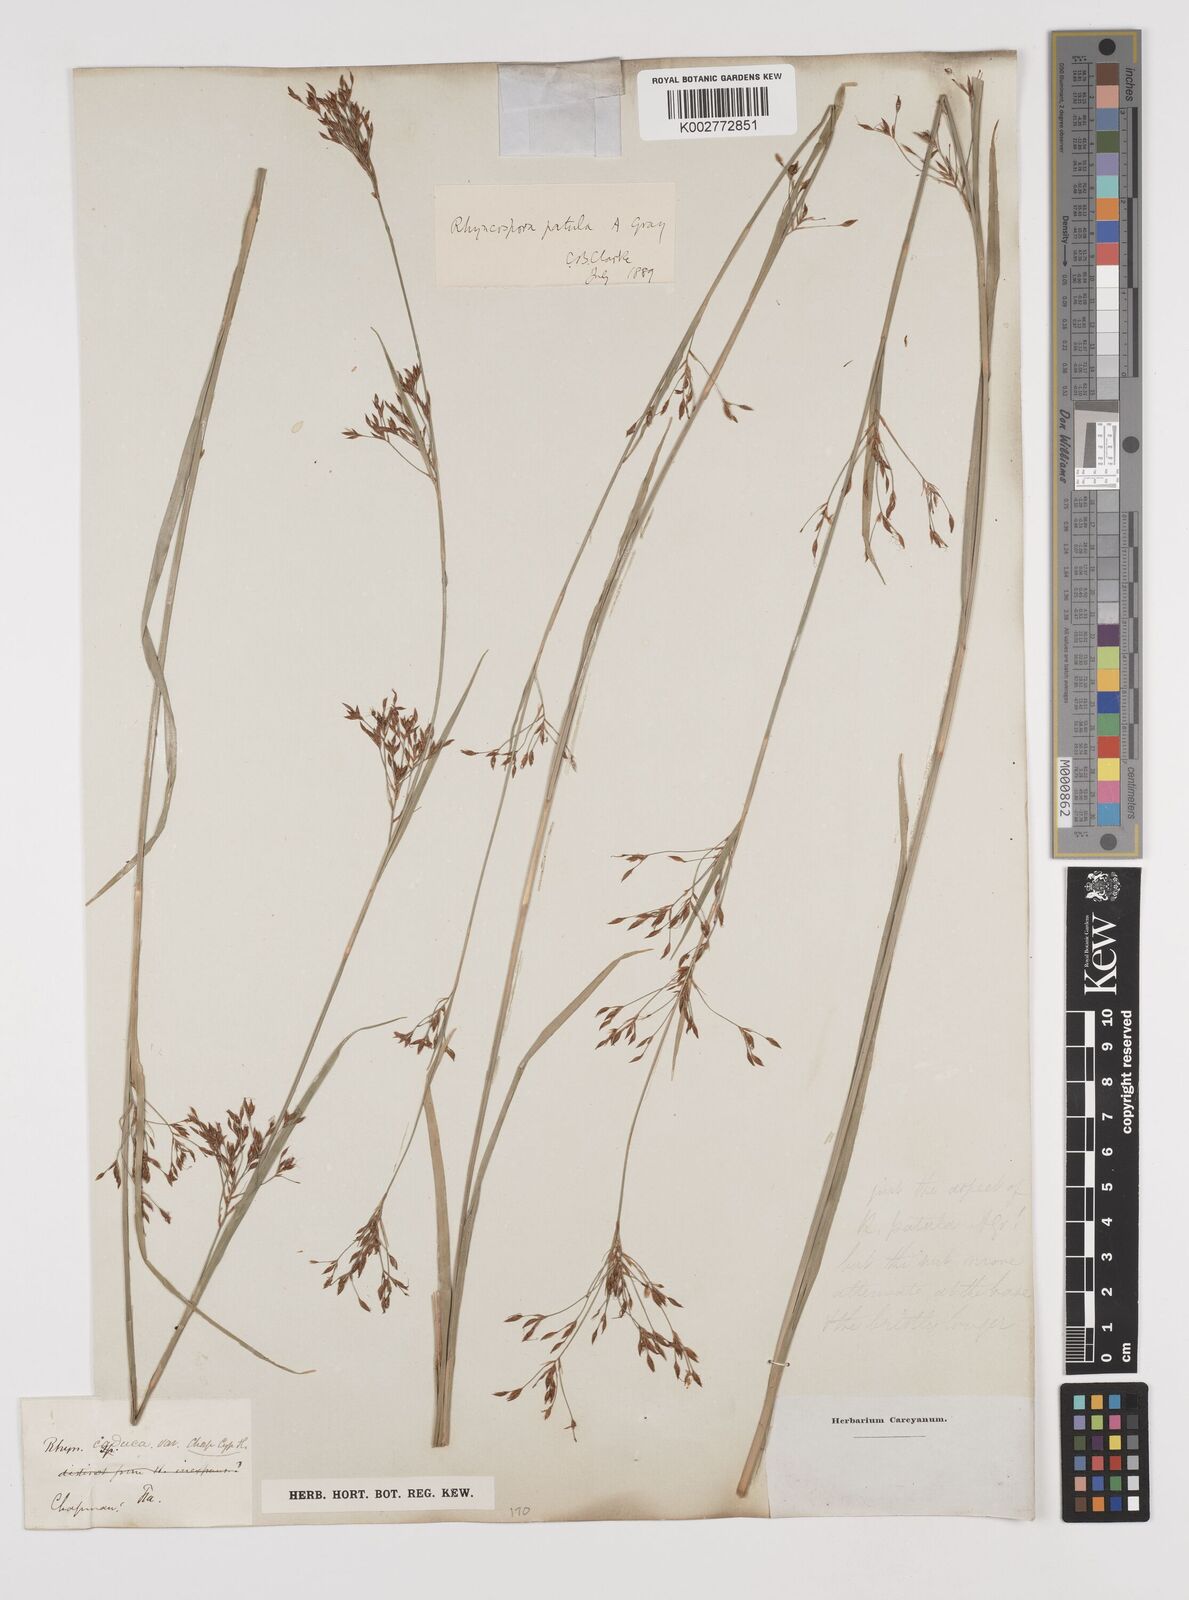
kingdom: Plantae
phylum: Tracheophyta
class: Liliopsida
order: Poales
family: Cyperaceae
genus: Rhynchospora
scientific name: Rhynchospora caduca
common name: Anglestem beaksedge
